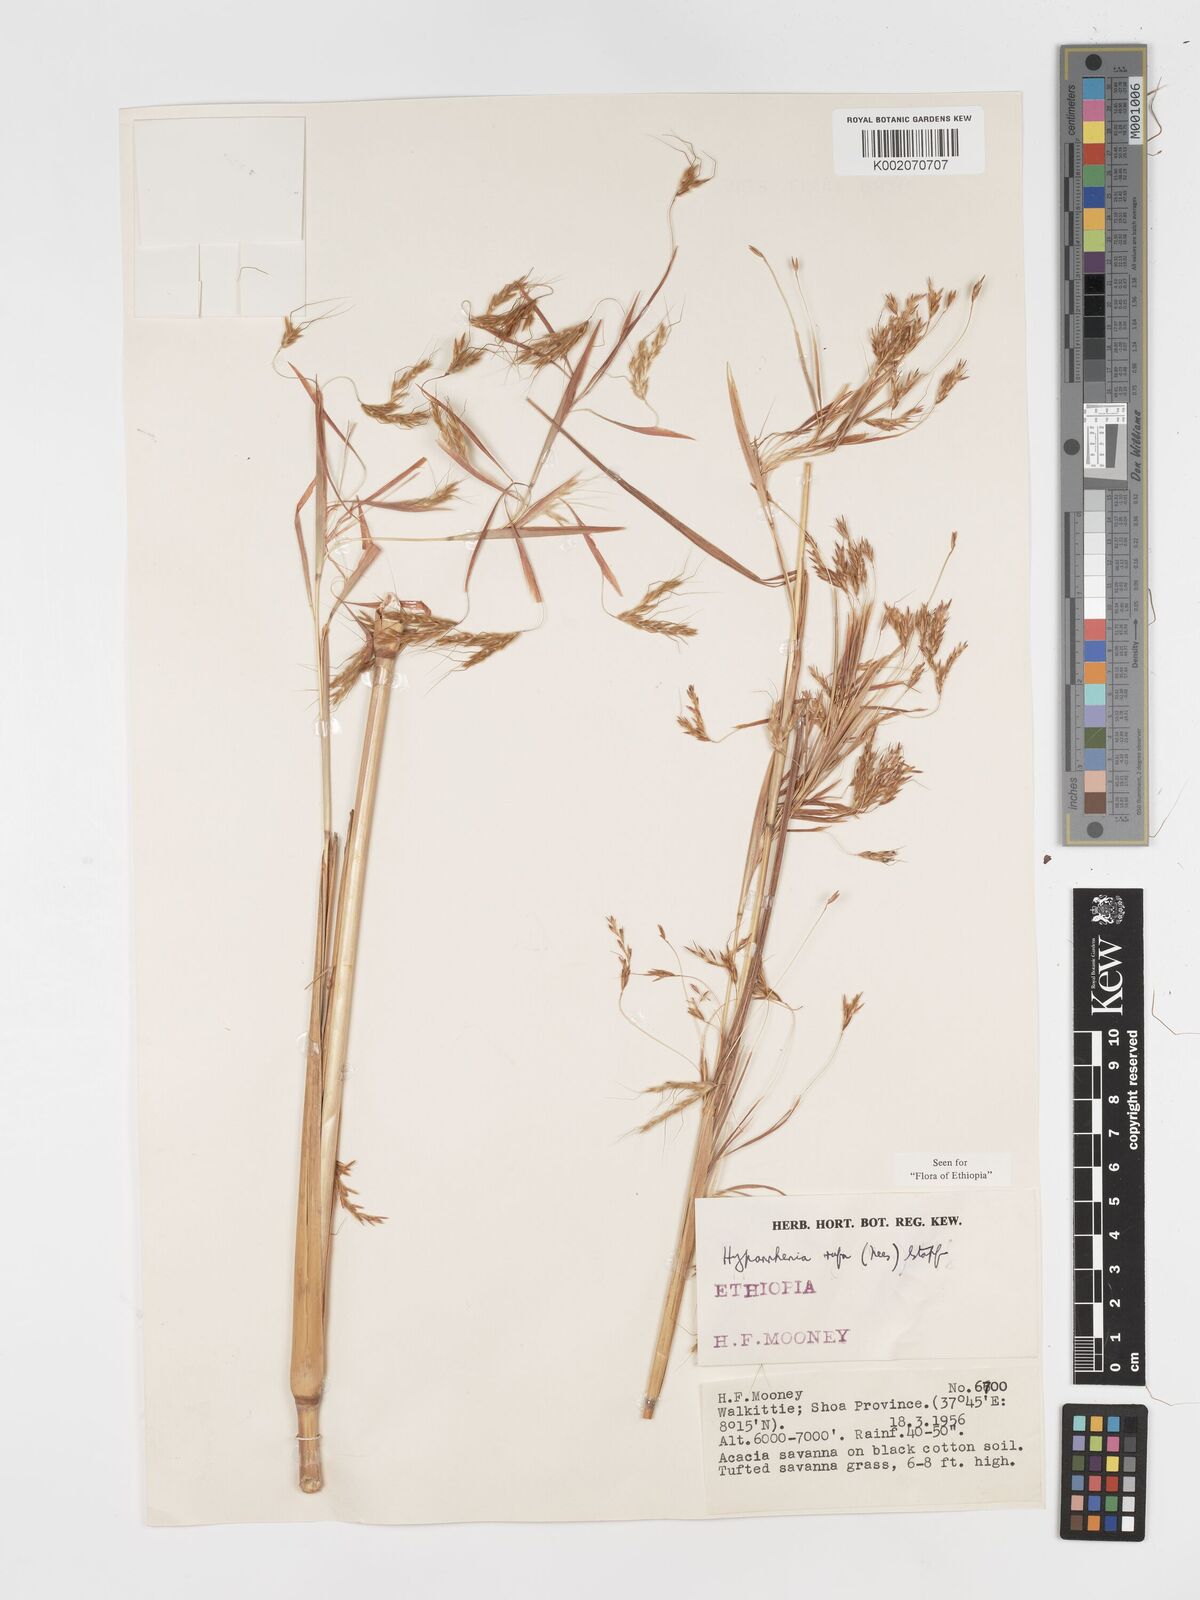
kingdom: Plantae
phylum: Tracheophyta
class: Liliopsida
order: Poales
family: Poaceae
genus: Hyparrhenia
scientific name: Hyparrhenia rufa
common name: Jaraguagrass
